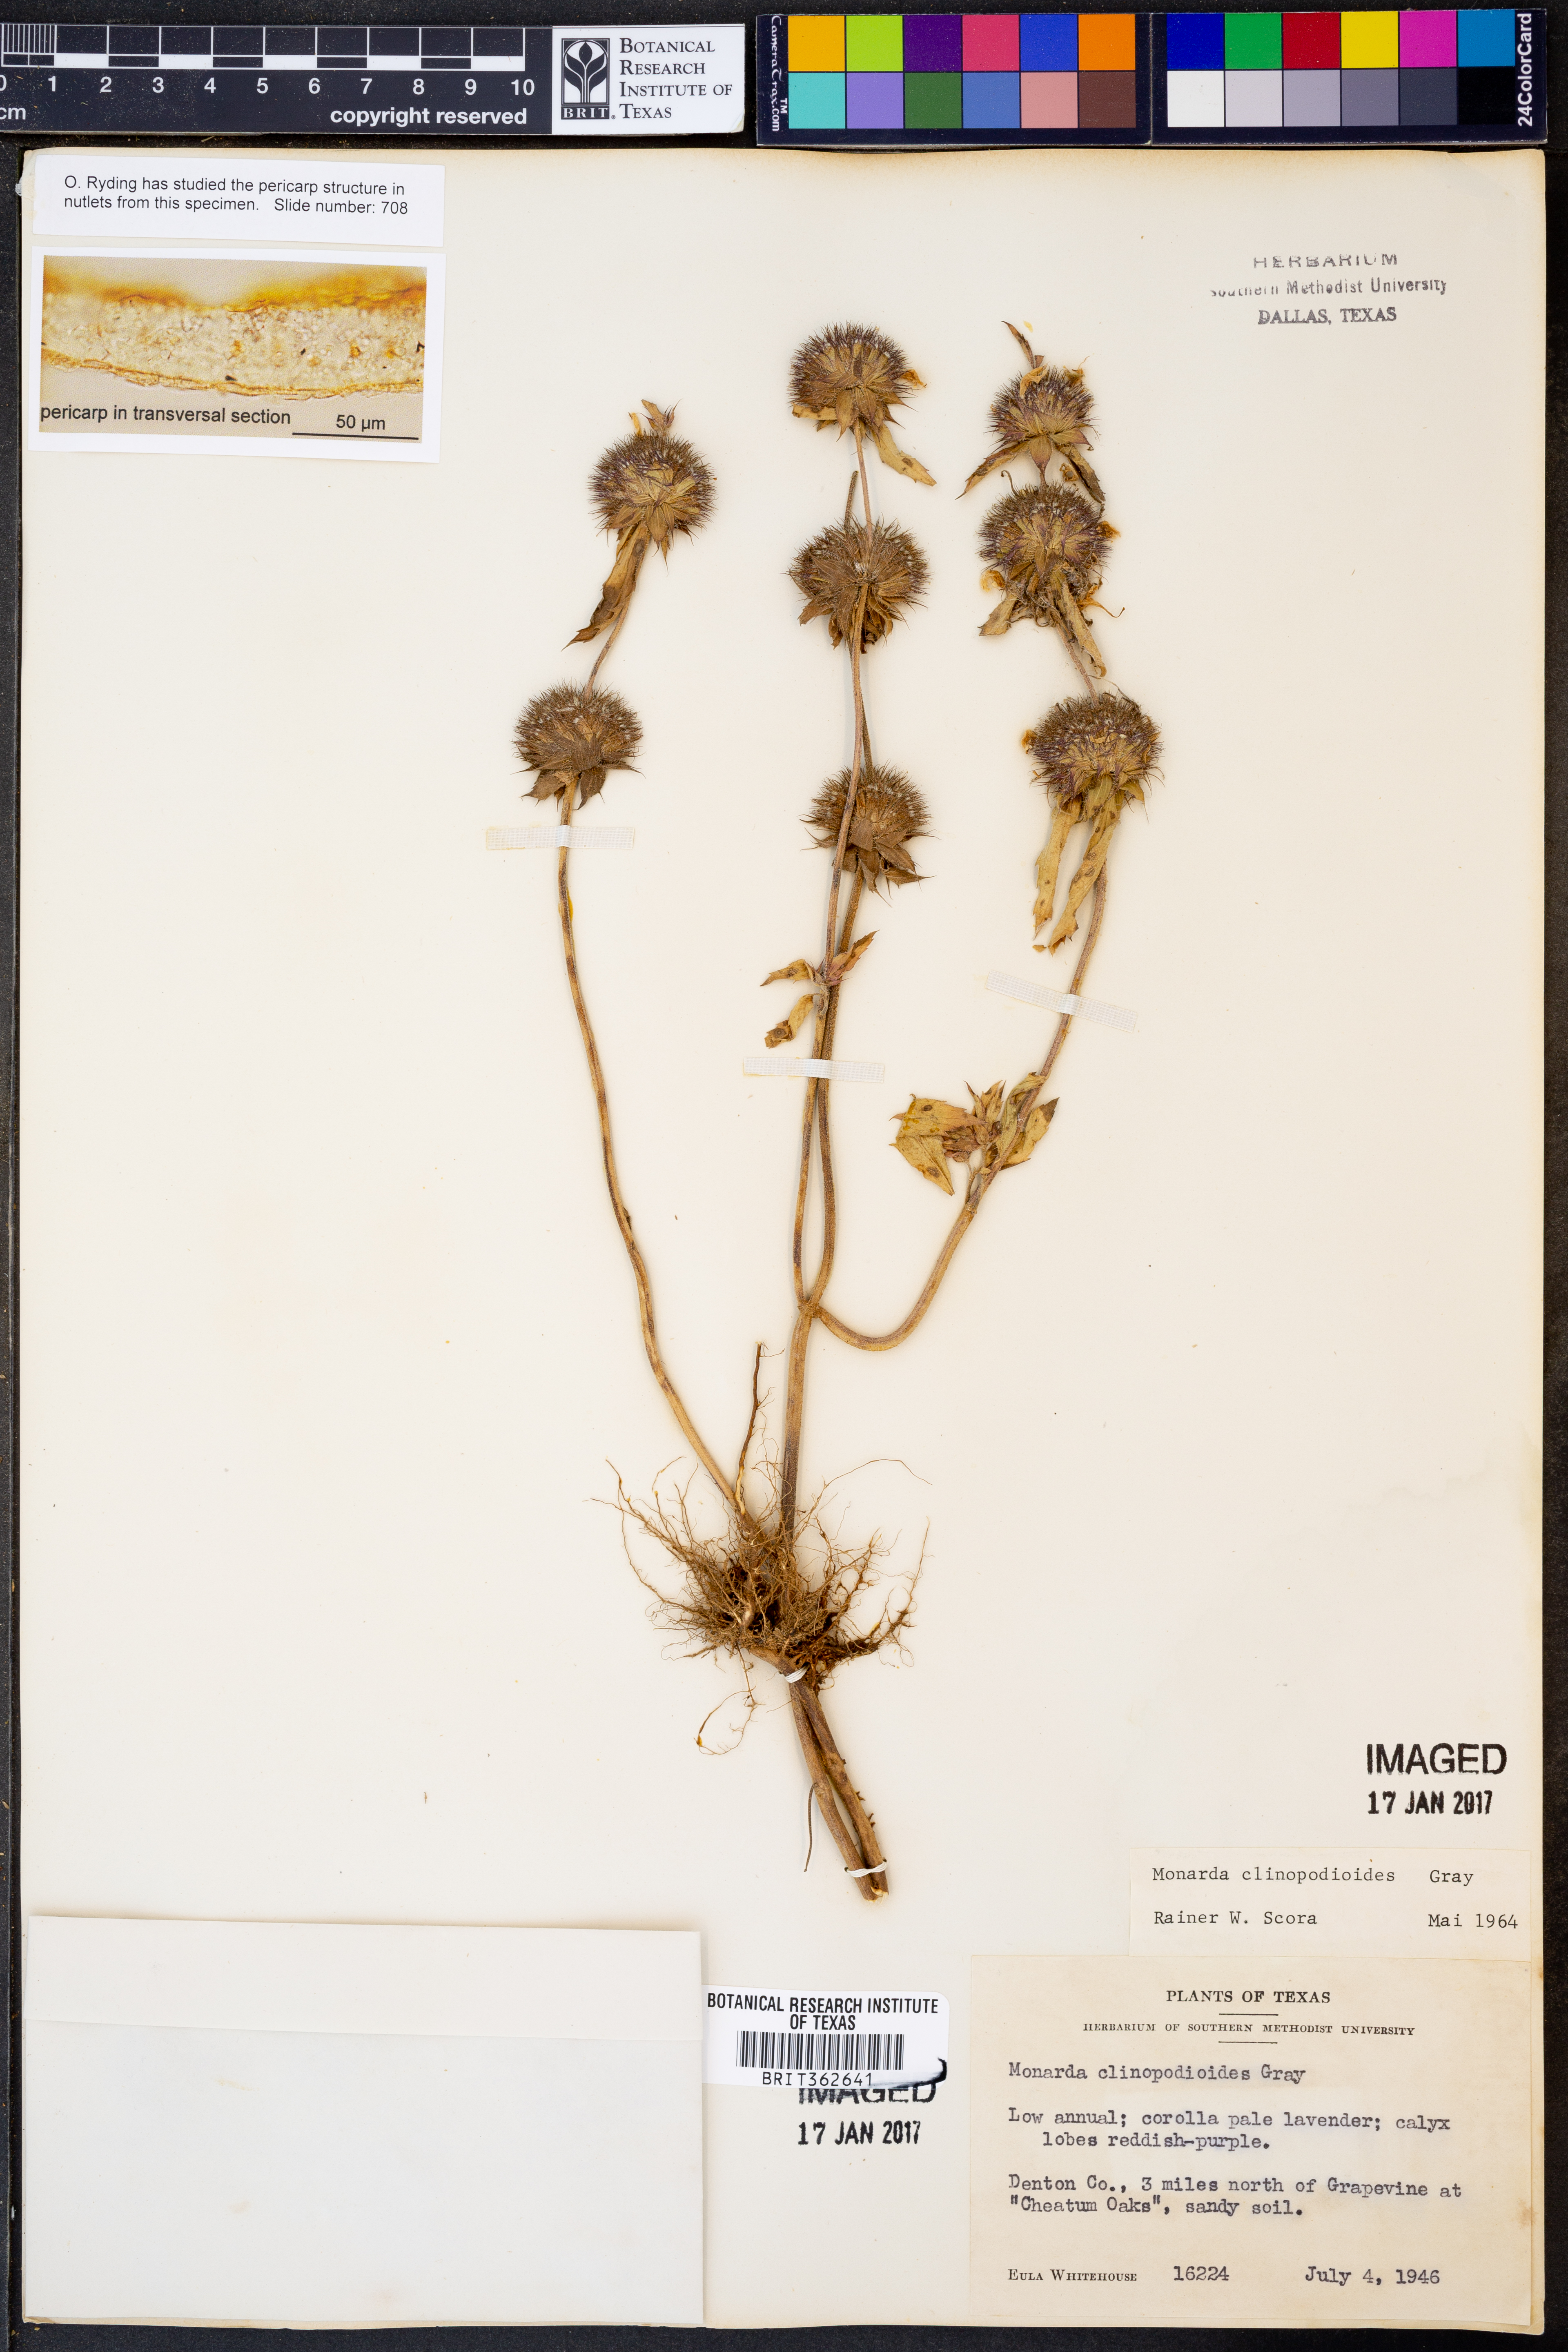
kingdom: Plantae
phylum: Tracheophyta
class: Magnoliopsida
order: Lamiales
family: Lamiaceae
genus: Monarda
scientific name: Monarda clinopodioides
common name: Basil beebalm
